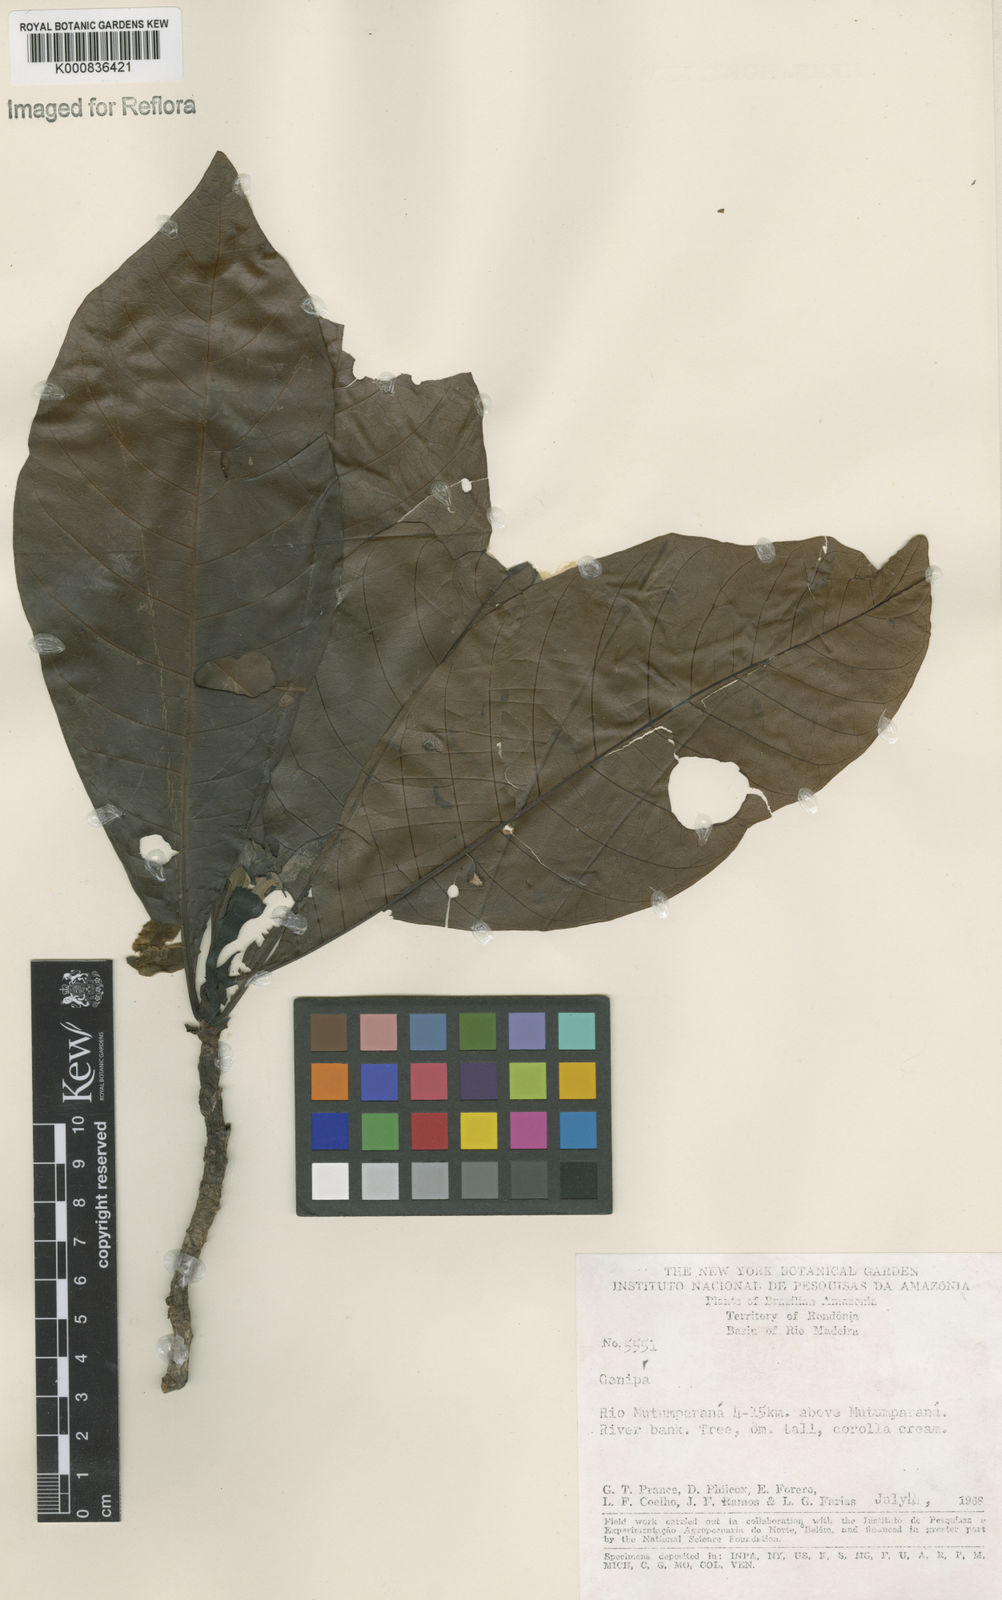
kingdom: Plantae
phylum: Tracheophyta
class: Magnoliopsida
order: Gentianales
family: Rubiaceae
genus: Genipa
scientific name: Genipa americana
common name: Genipap
